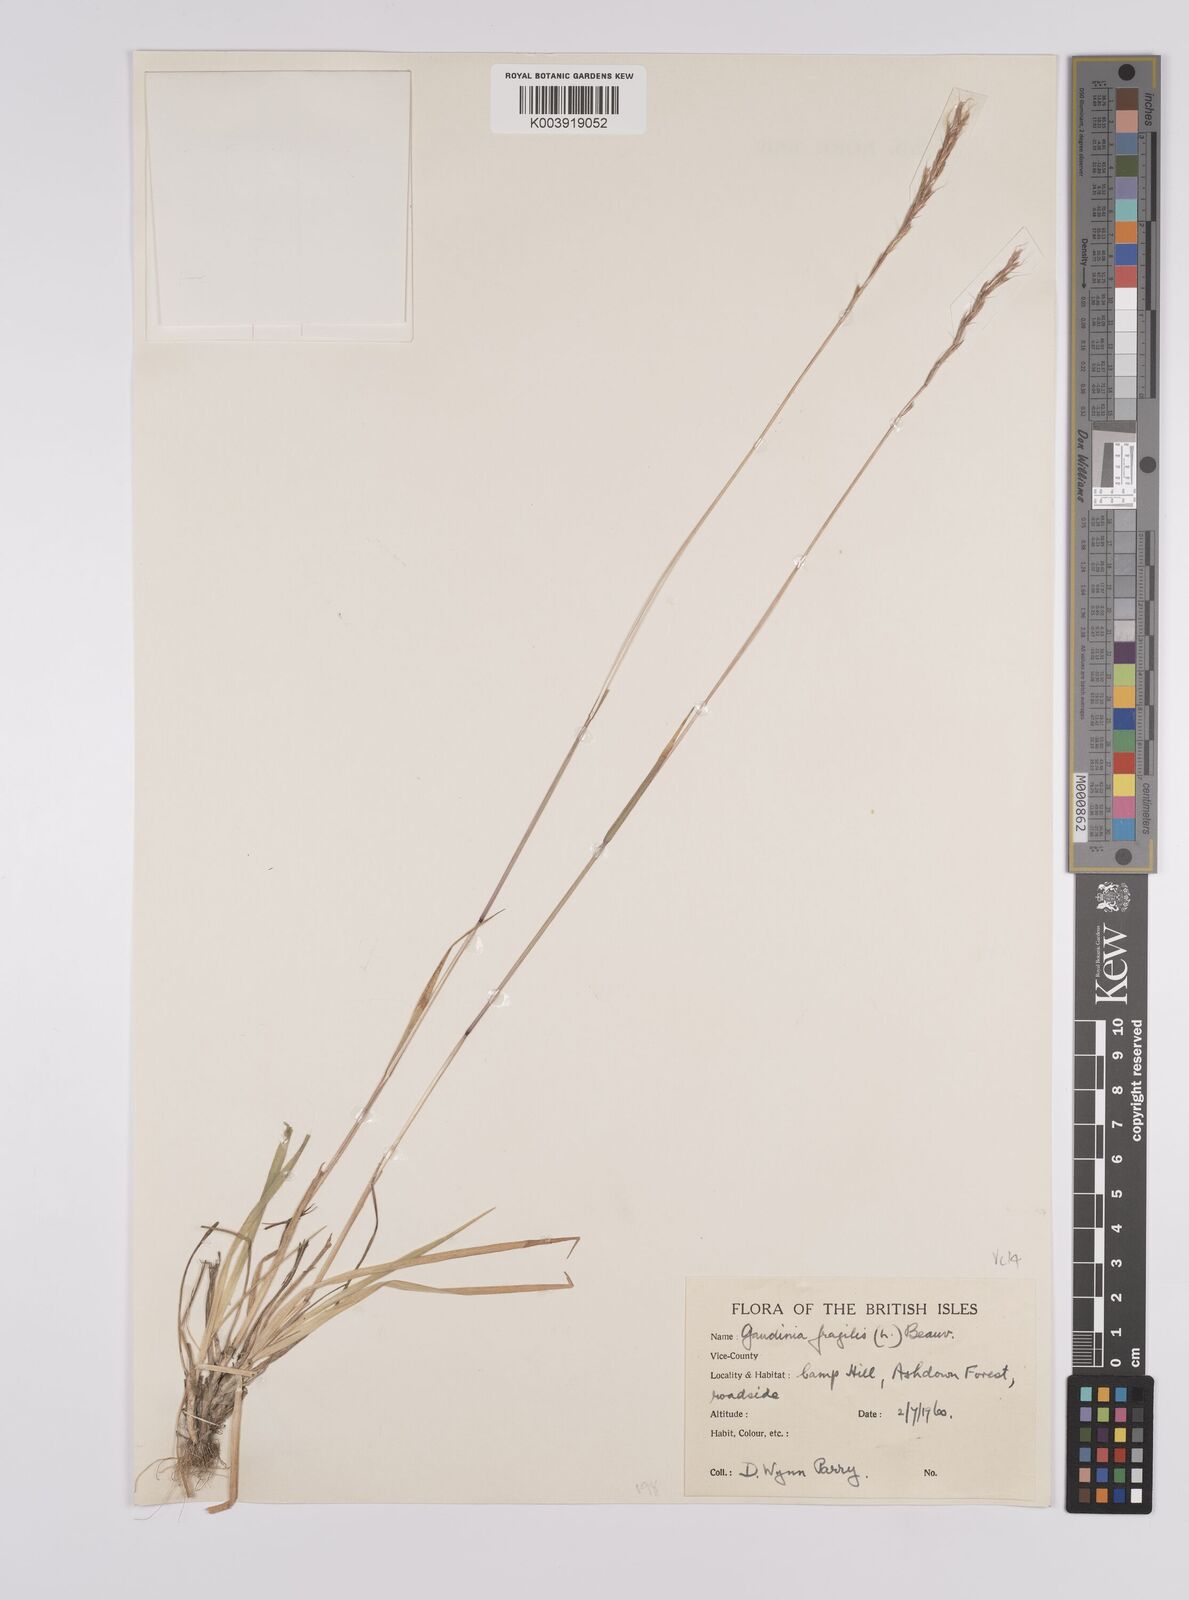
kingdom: Plantae
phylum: Tracheophyta
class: Liliopsida
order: Poales
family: Poaceae
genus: Gaudinia
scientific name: Gaudinia fragilis
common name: French oat-grass
